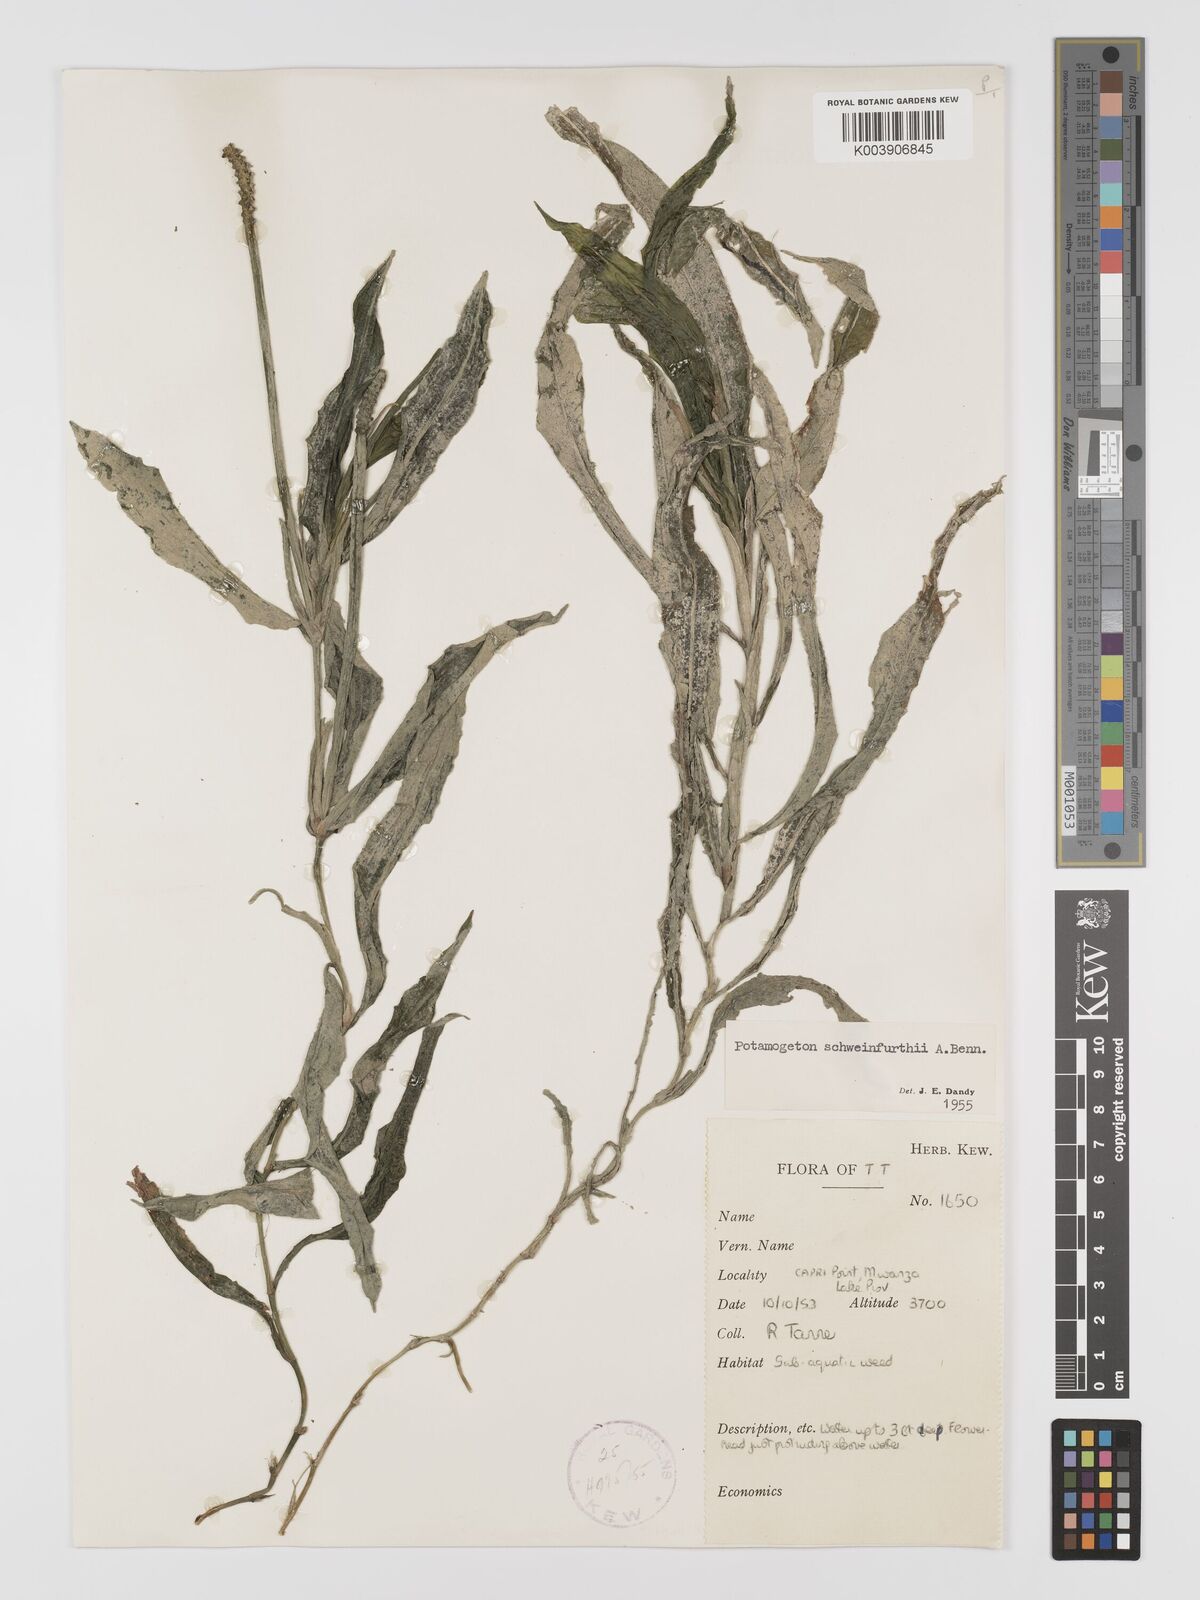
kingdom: Plantae
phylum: Tracheophyta
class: Liliopsida
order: Alismatales
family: Potamogetonaceae
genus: Potamogeton
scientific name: Potamogeton schweinfurthii
